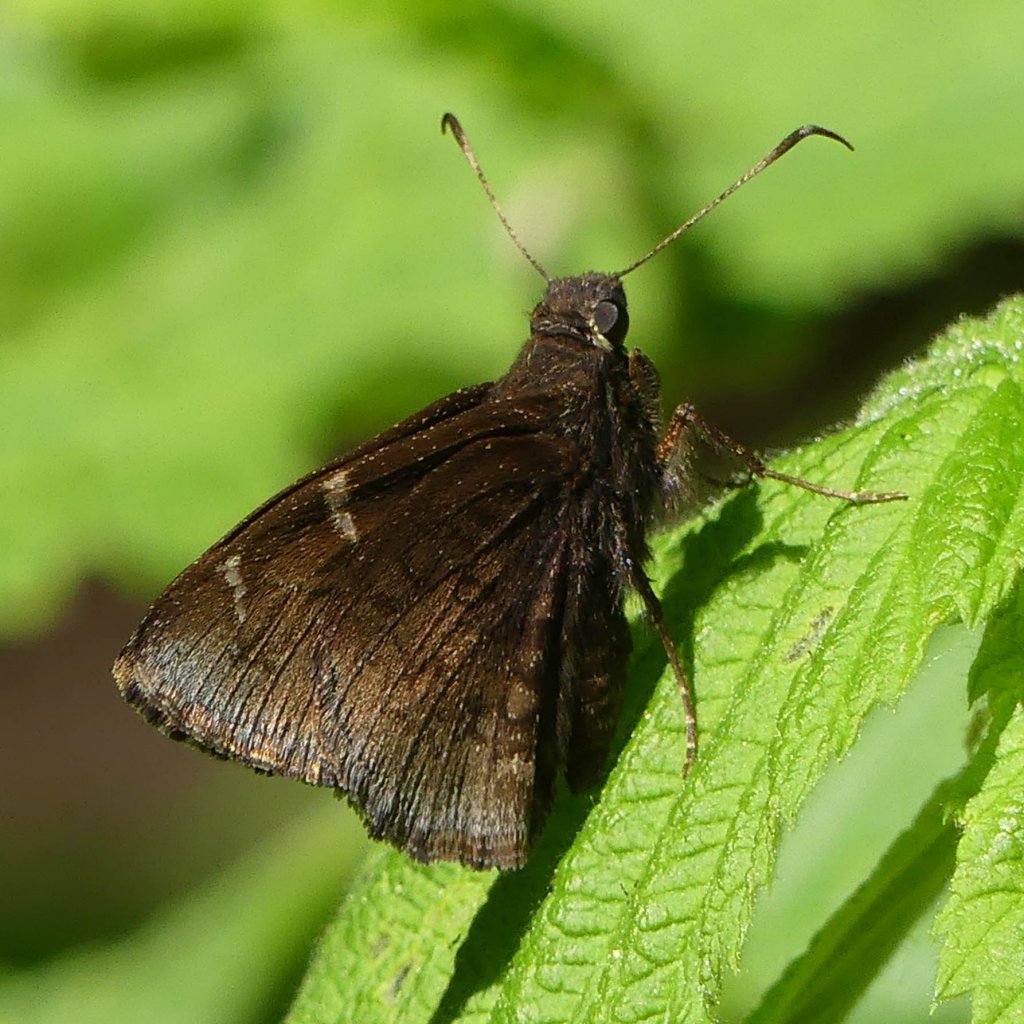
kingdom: Animalia
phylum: Arthropoda
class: Insecta
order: Lepidoptera
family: Hesperiidae
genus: Autochton
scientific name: Autochton
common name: Northern Cloudywing
